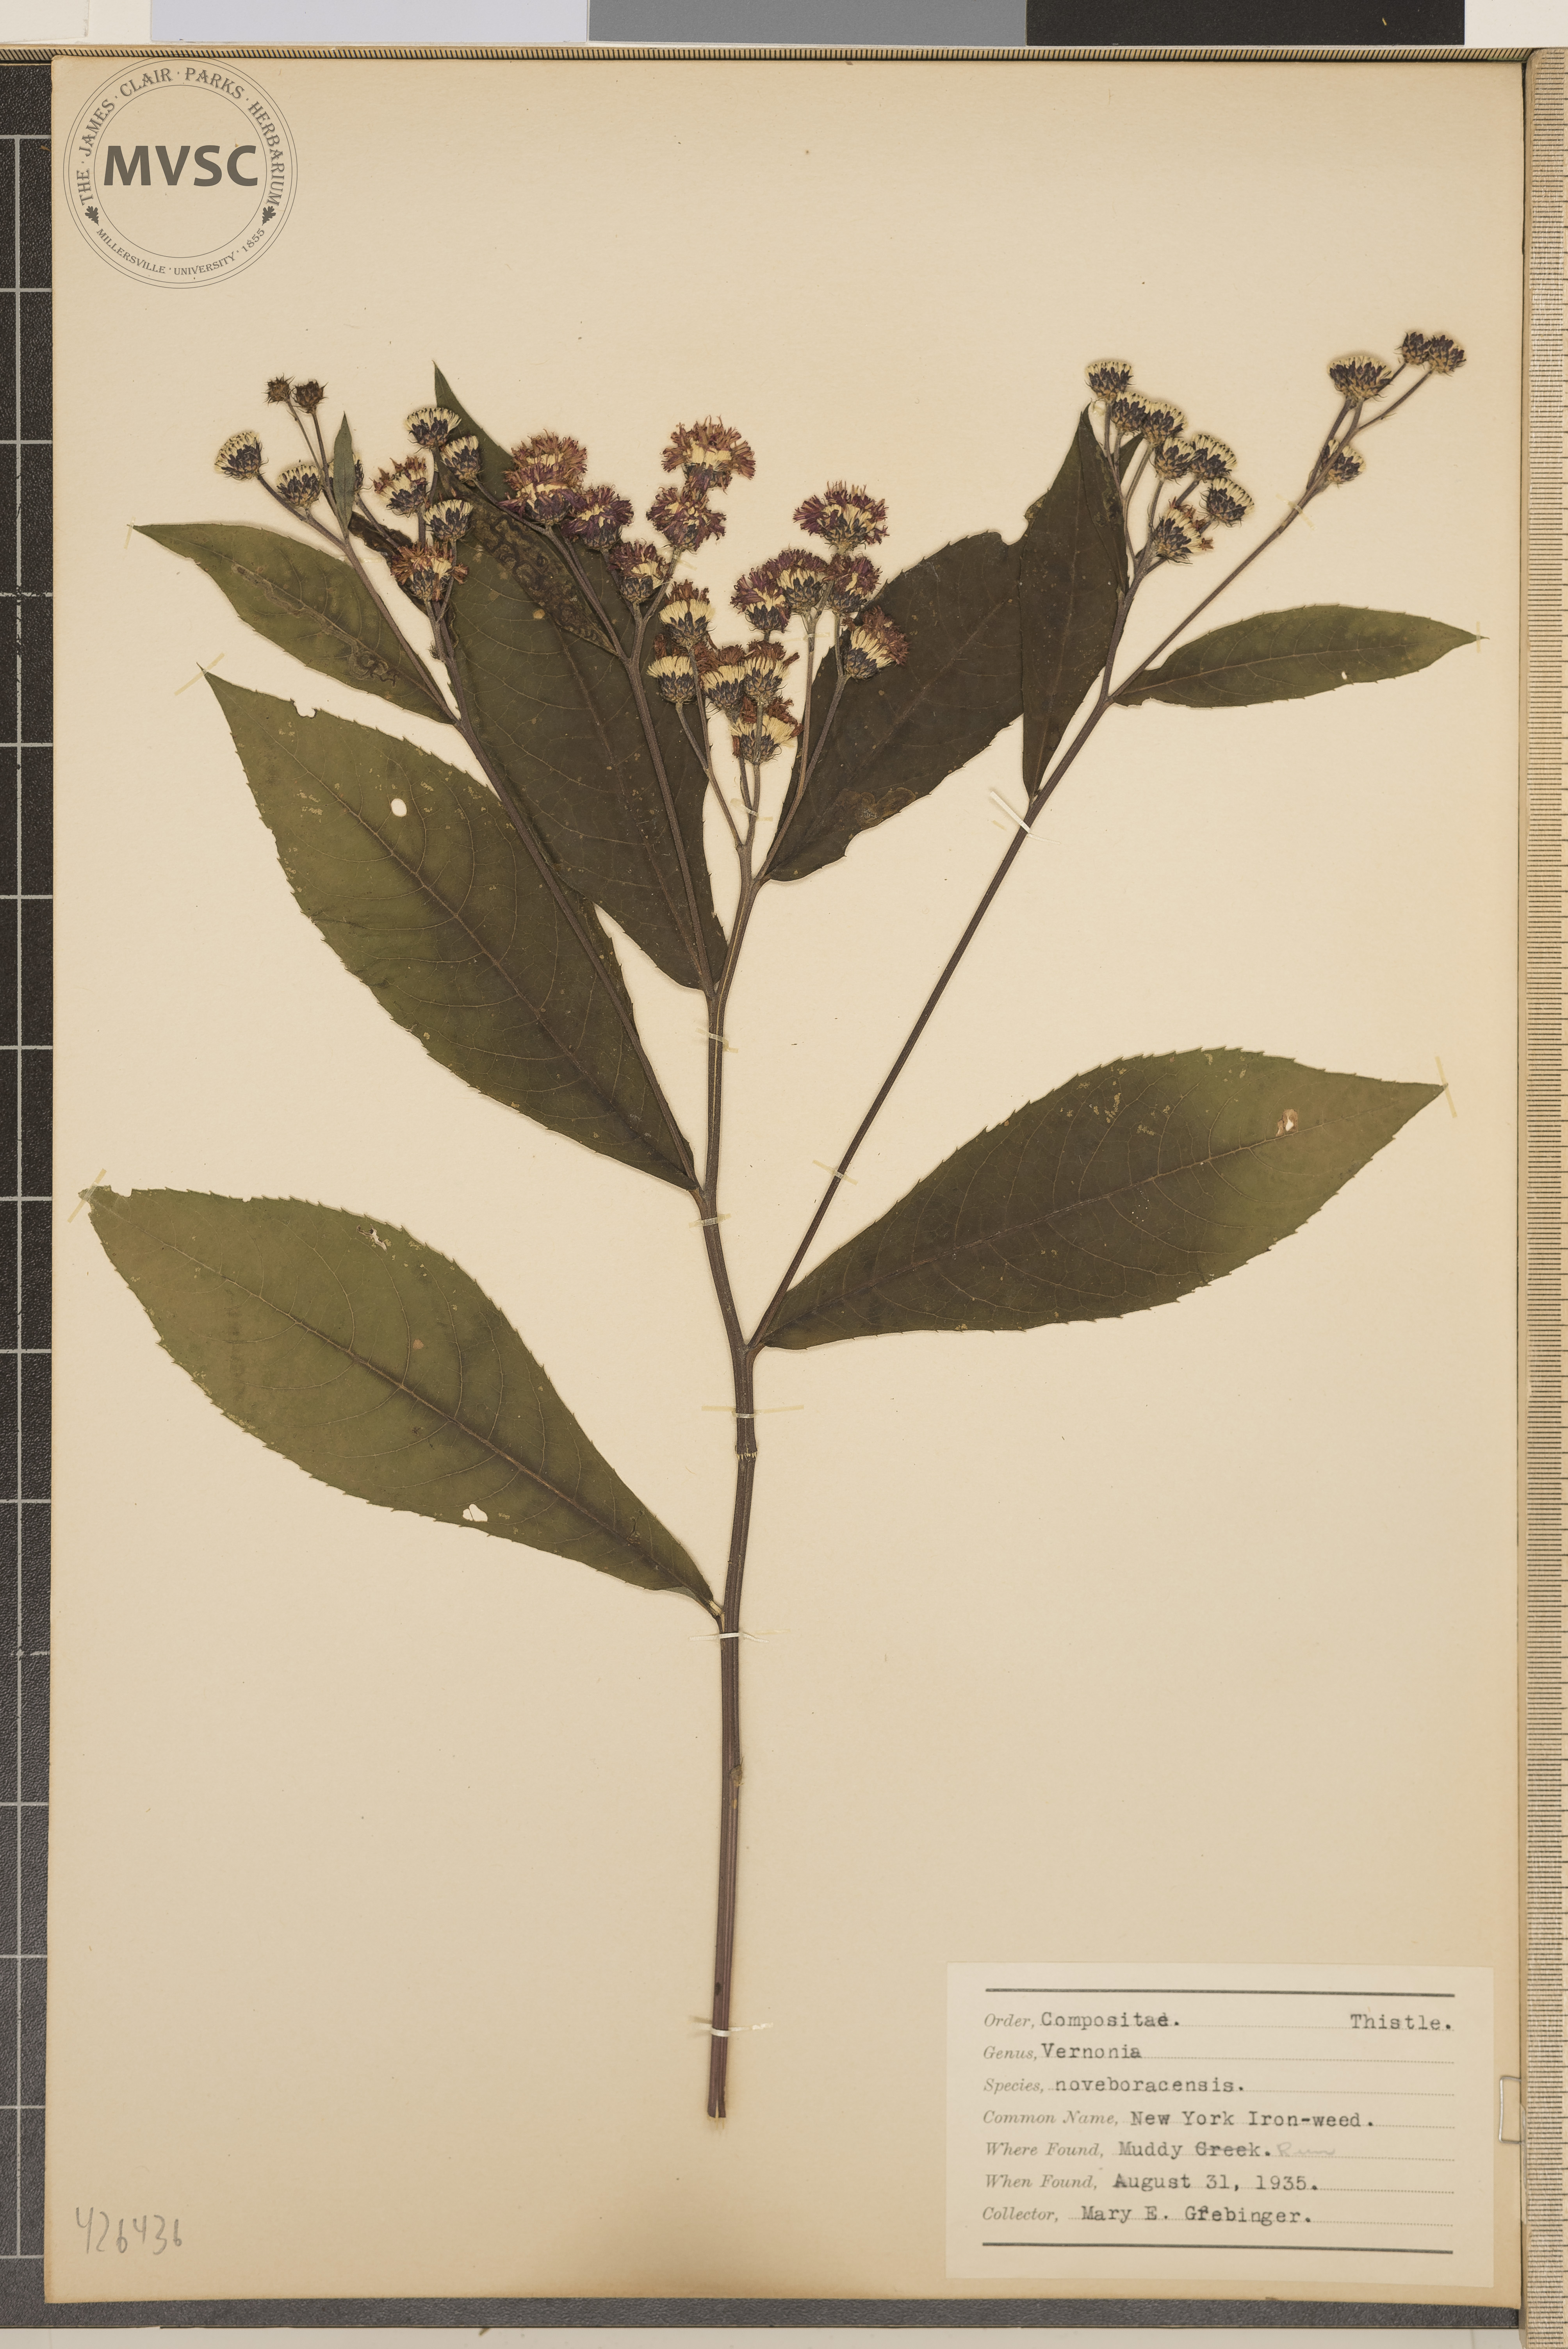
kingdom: Plantae
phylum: Tracheophyta
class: Magnoliopsida
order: Asterales
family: Asteraceae
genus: Vernonia
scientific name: Vernonia noveboracensis
